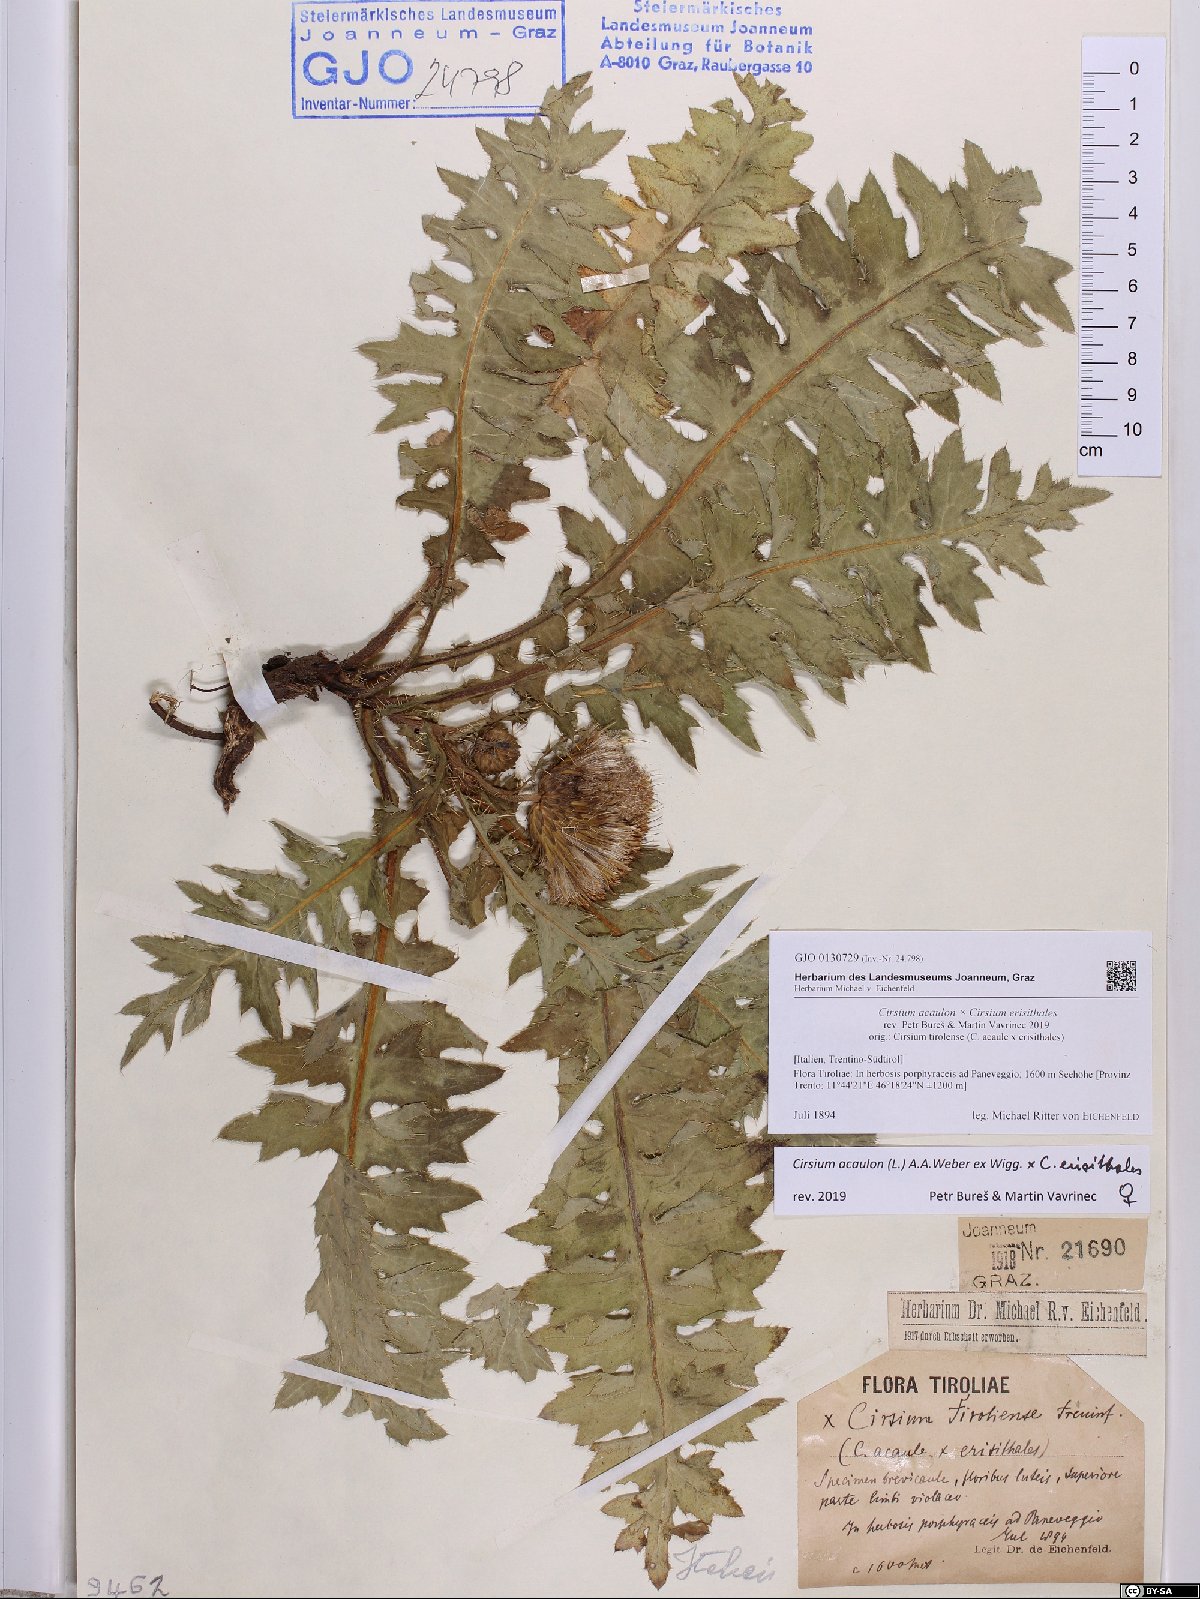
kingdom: Plantae
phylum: Tracheophyta
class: Magnoliopsida
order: Asterales
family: Asteraceae
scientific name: Asteraceae
